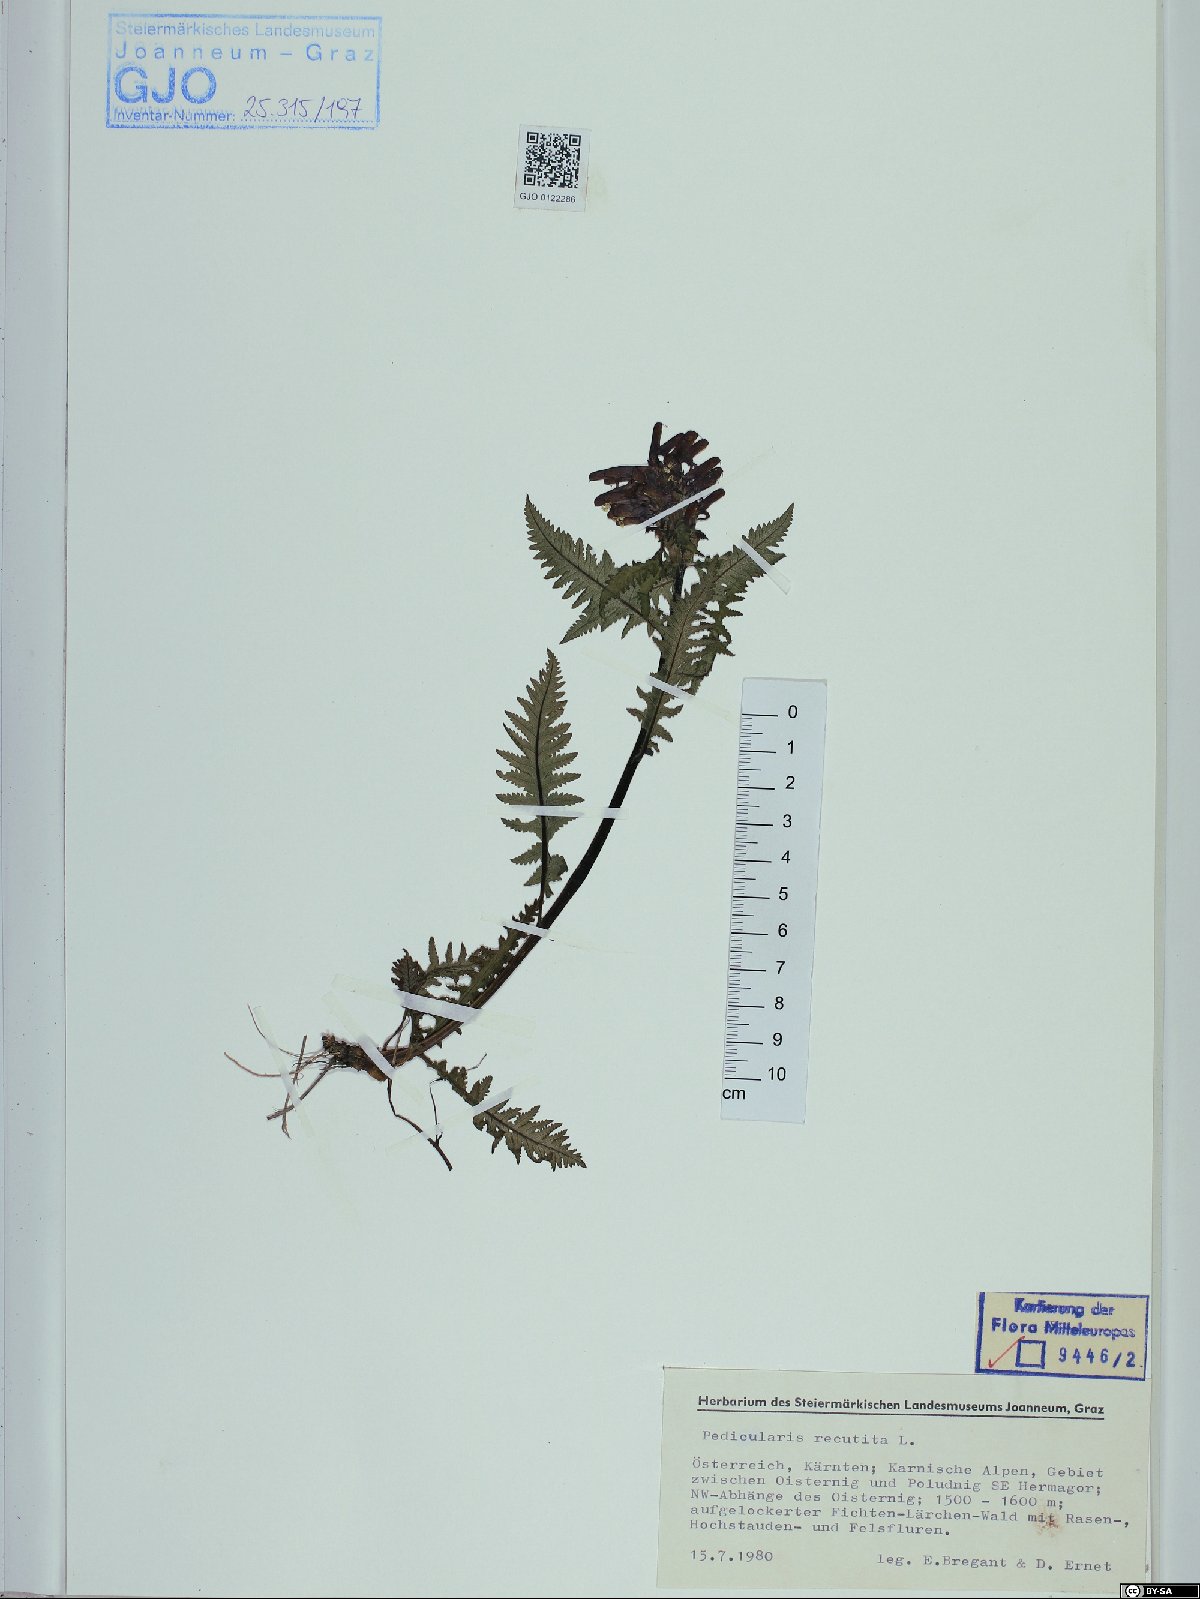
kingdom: Plantae
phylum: Tracheophyta
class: Magnoliopsida
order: Lamiales
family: Orobanchaceae
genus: Pedicularis
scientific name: Pedicularis recutita
